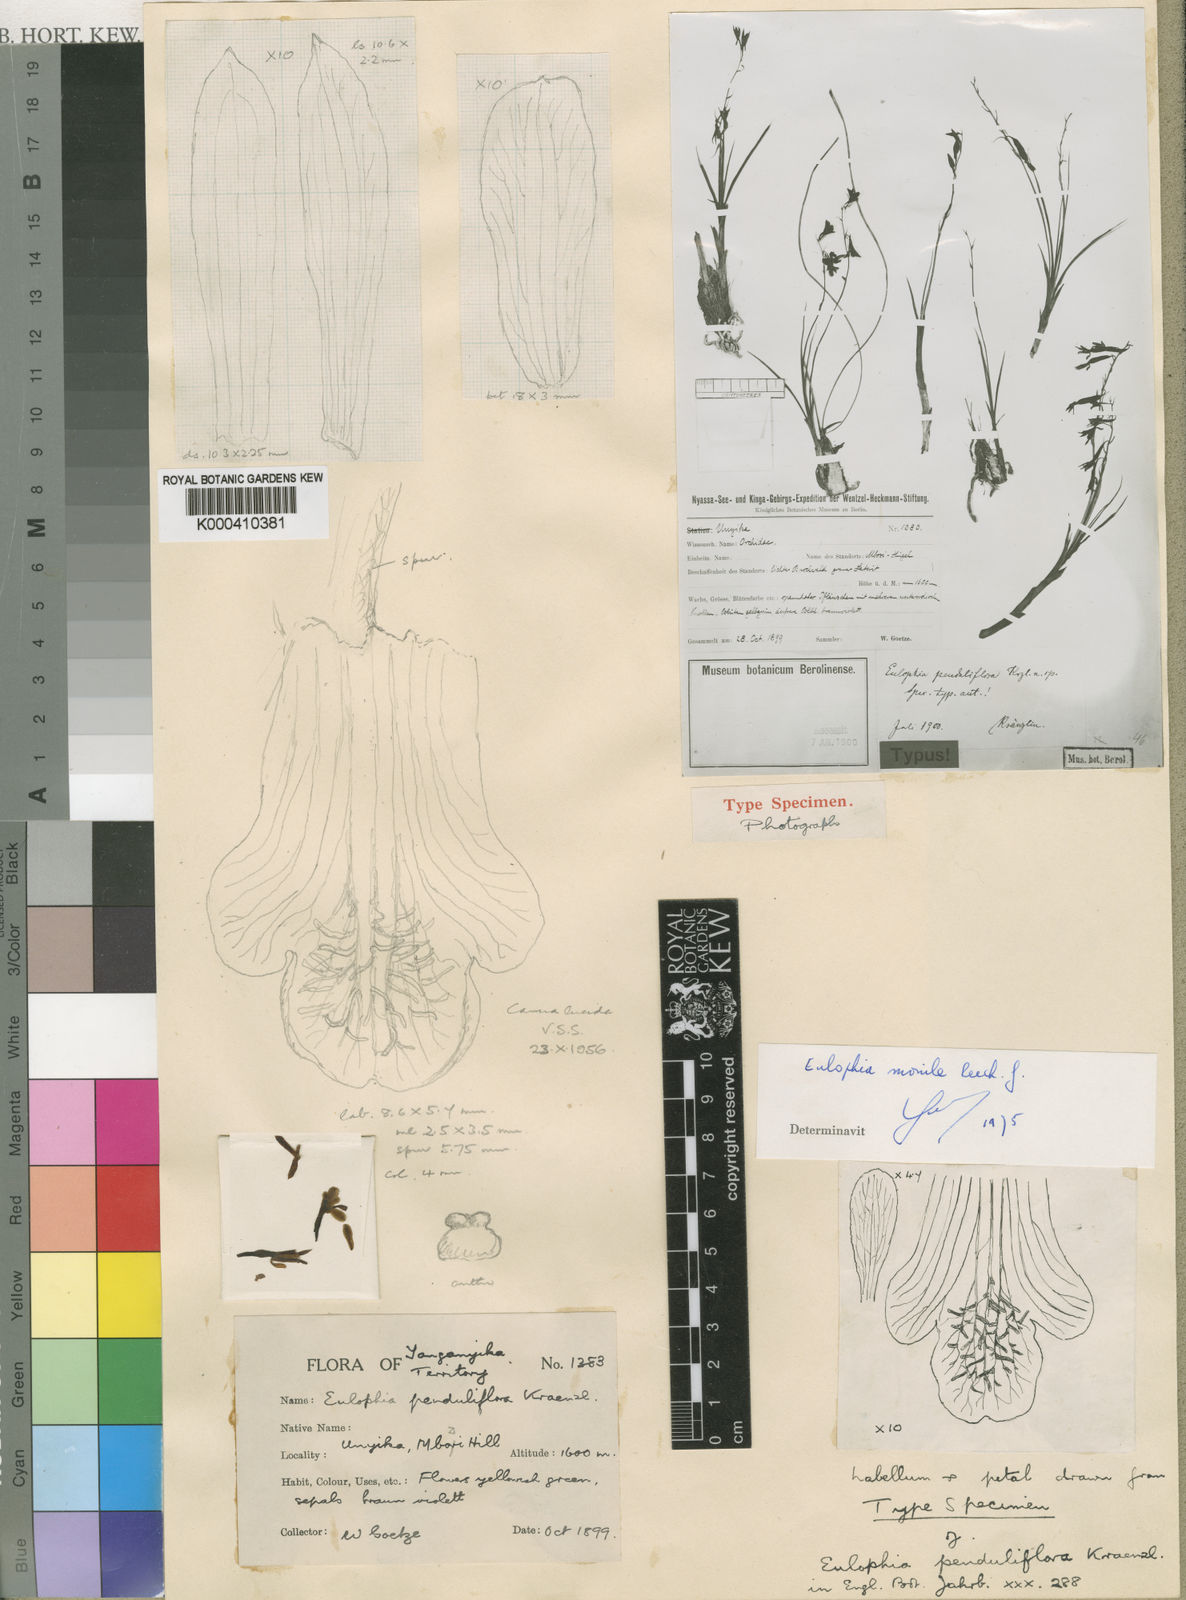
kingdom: Plantae
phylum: Tracheophyta
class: Liliopsida
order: Asparagales
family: Orchidaceae
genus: Eulophia
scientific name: Eulophia penduliflora
